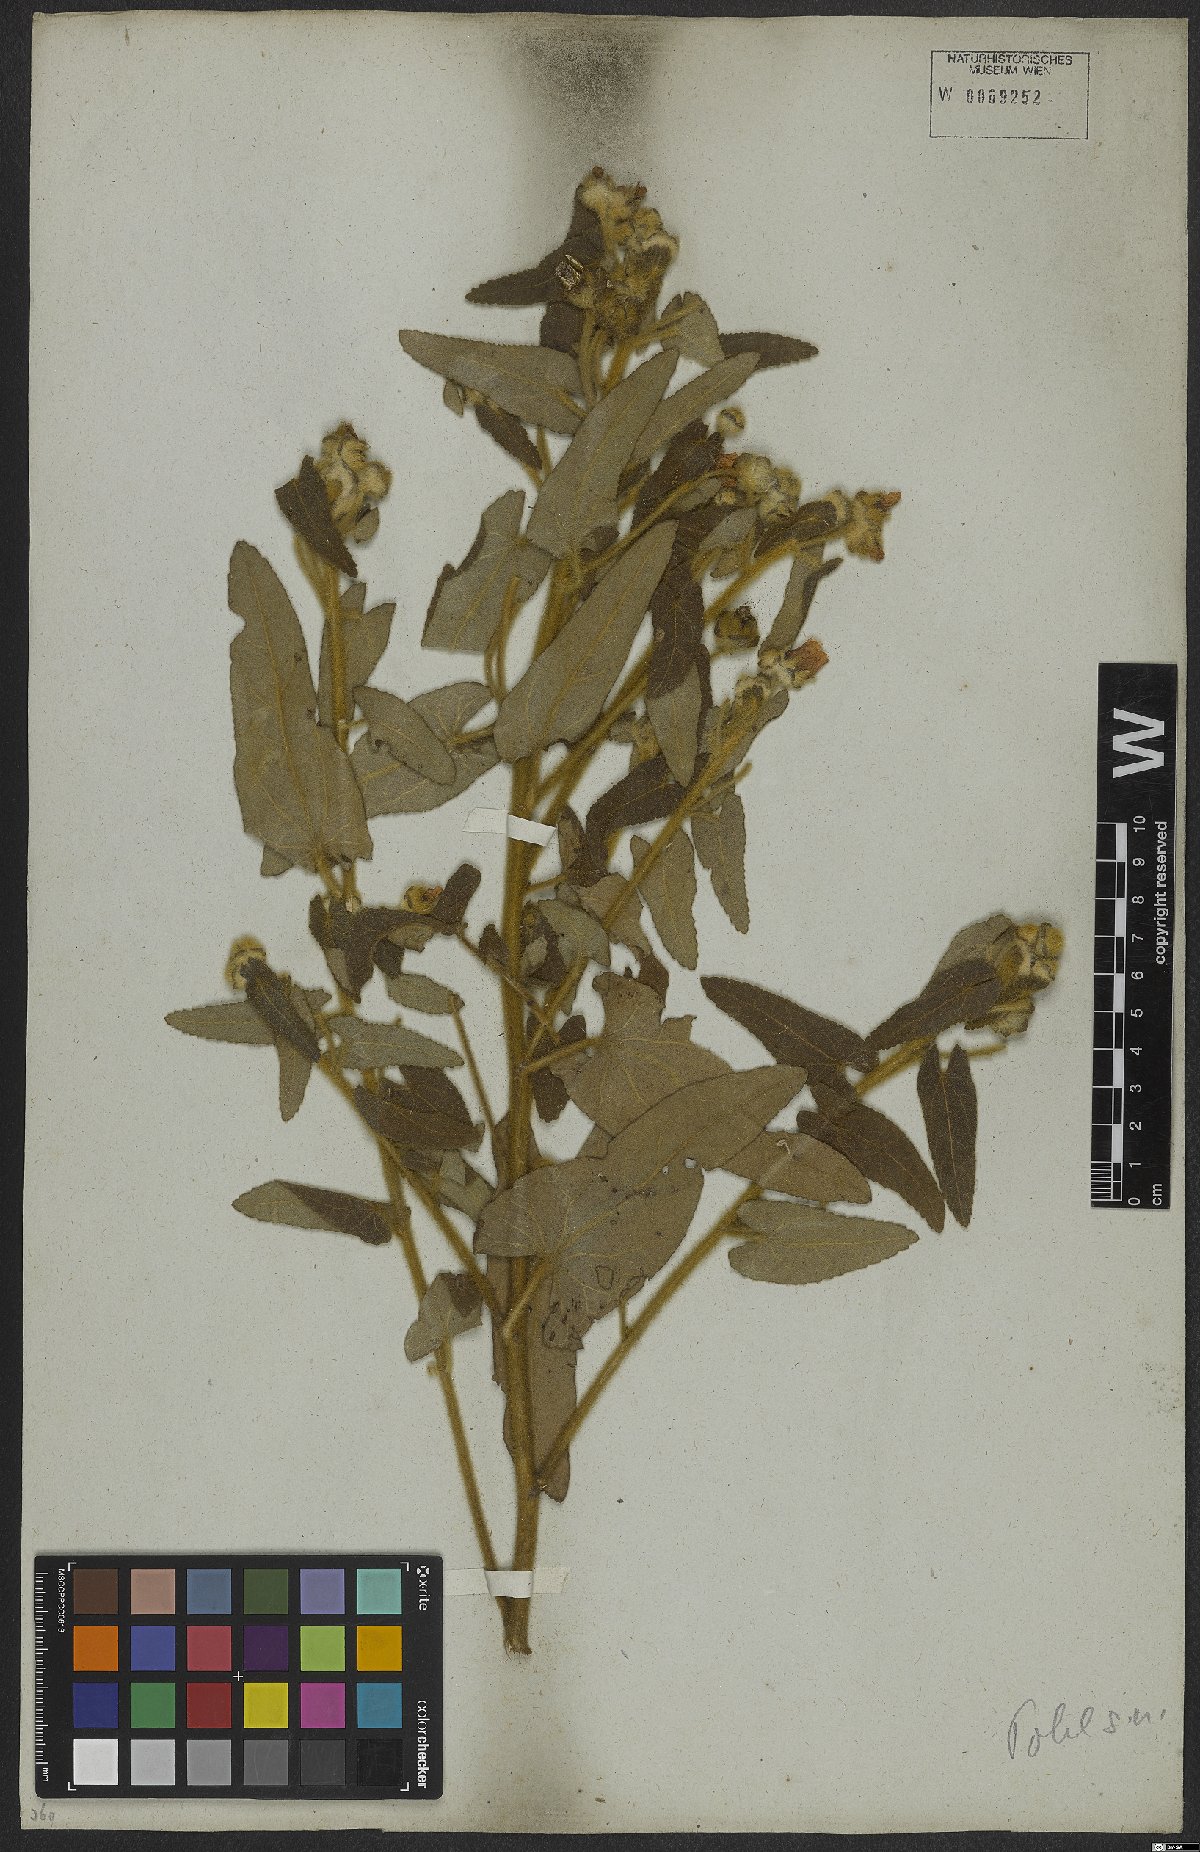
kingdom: Plantae
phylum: Tracheophyta
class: Magnoliopsida
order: Malvales
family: Malvaceae
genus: Pavonia
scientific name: Pavonia sagittata
